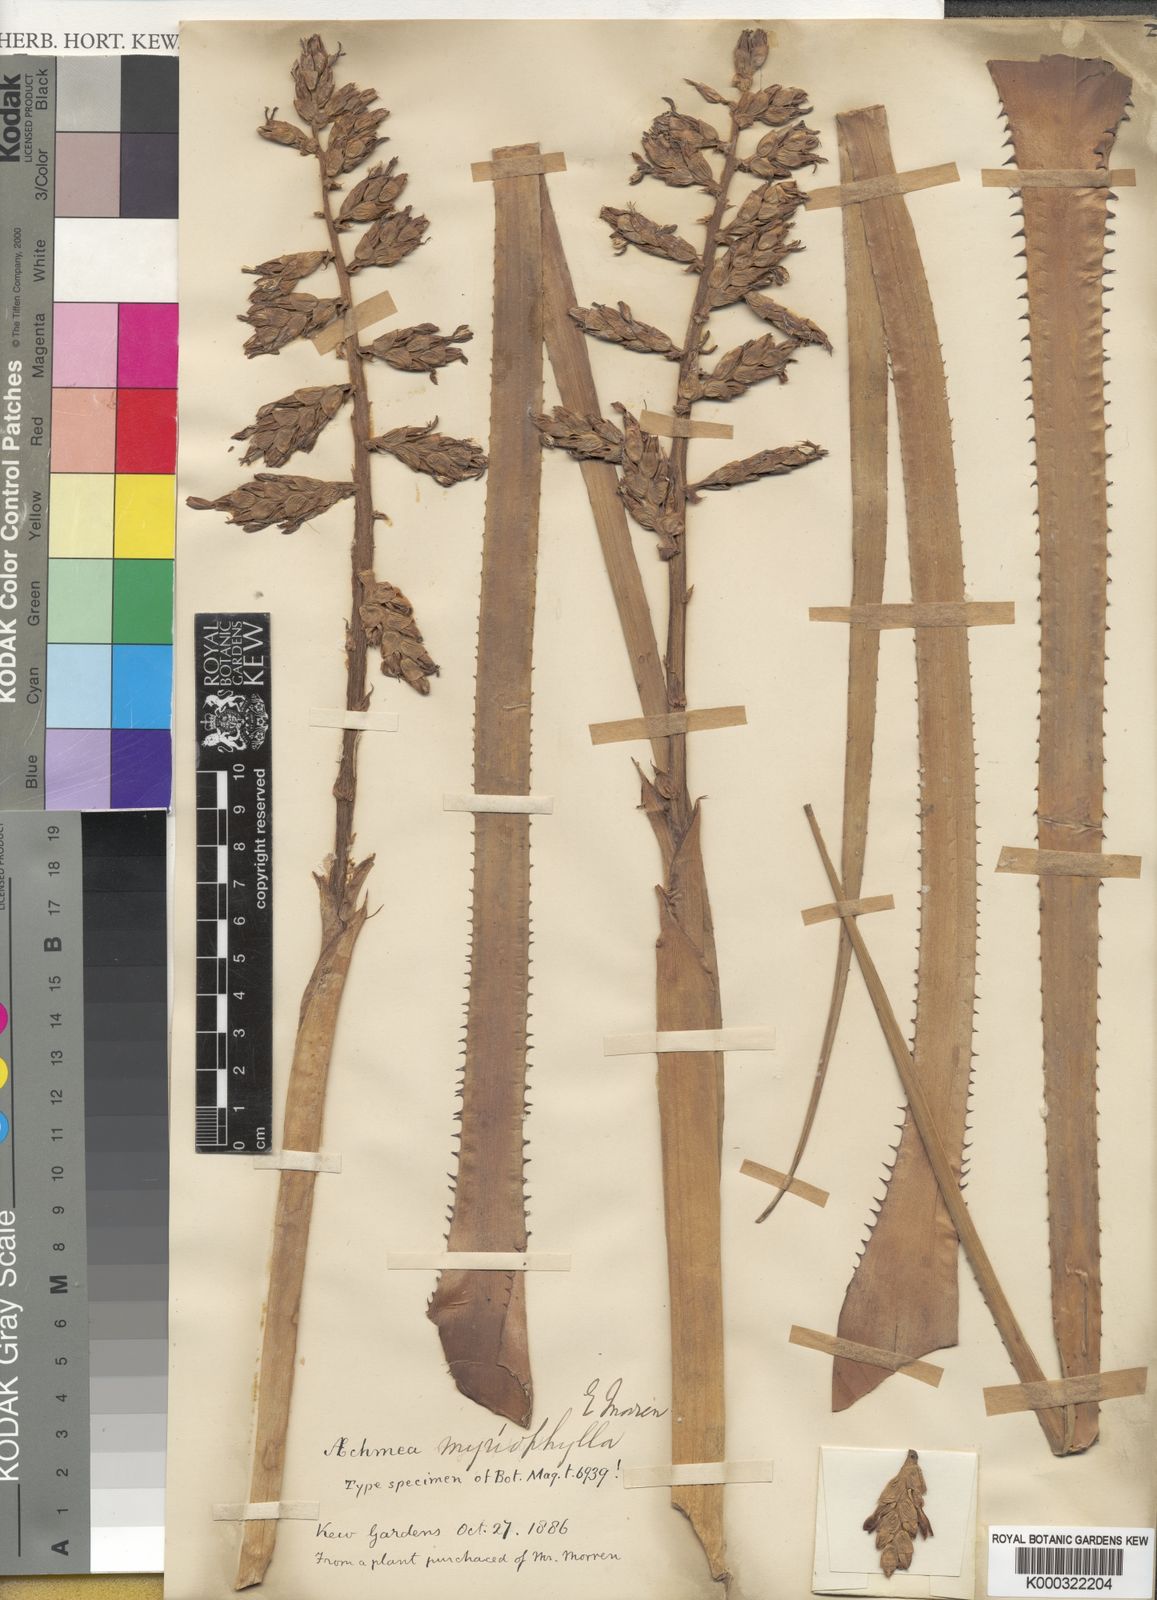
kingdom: Plantae
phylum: Tracheophyta
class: Liliopsida
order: Poales
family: Bromeliaceae
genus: Aechmea
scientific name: Aechmea distichantha
